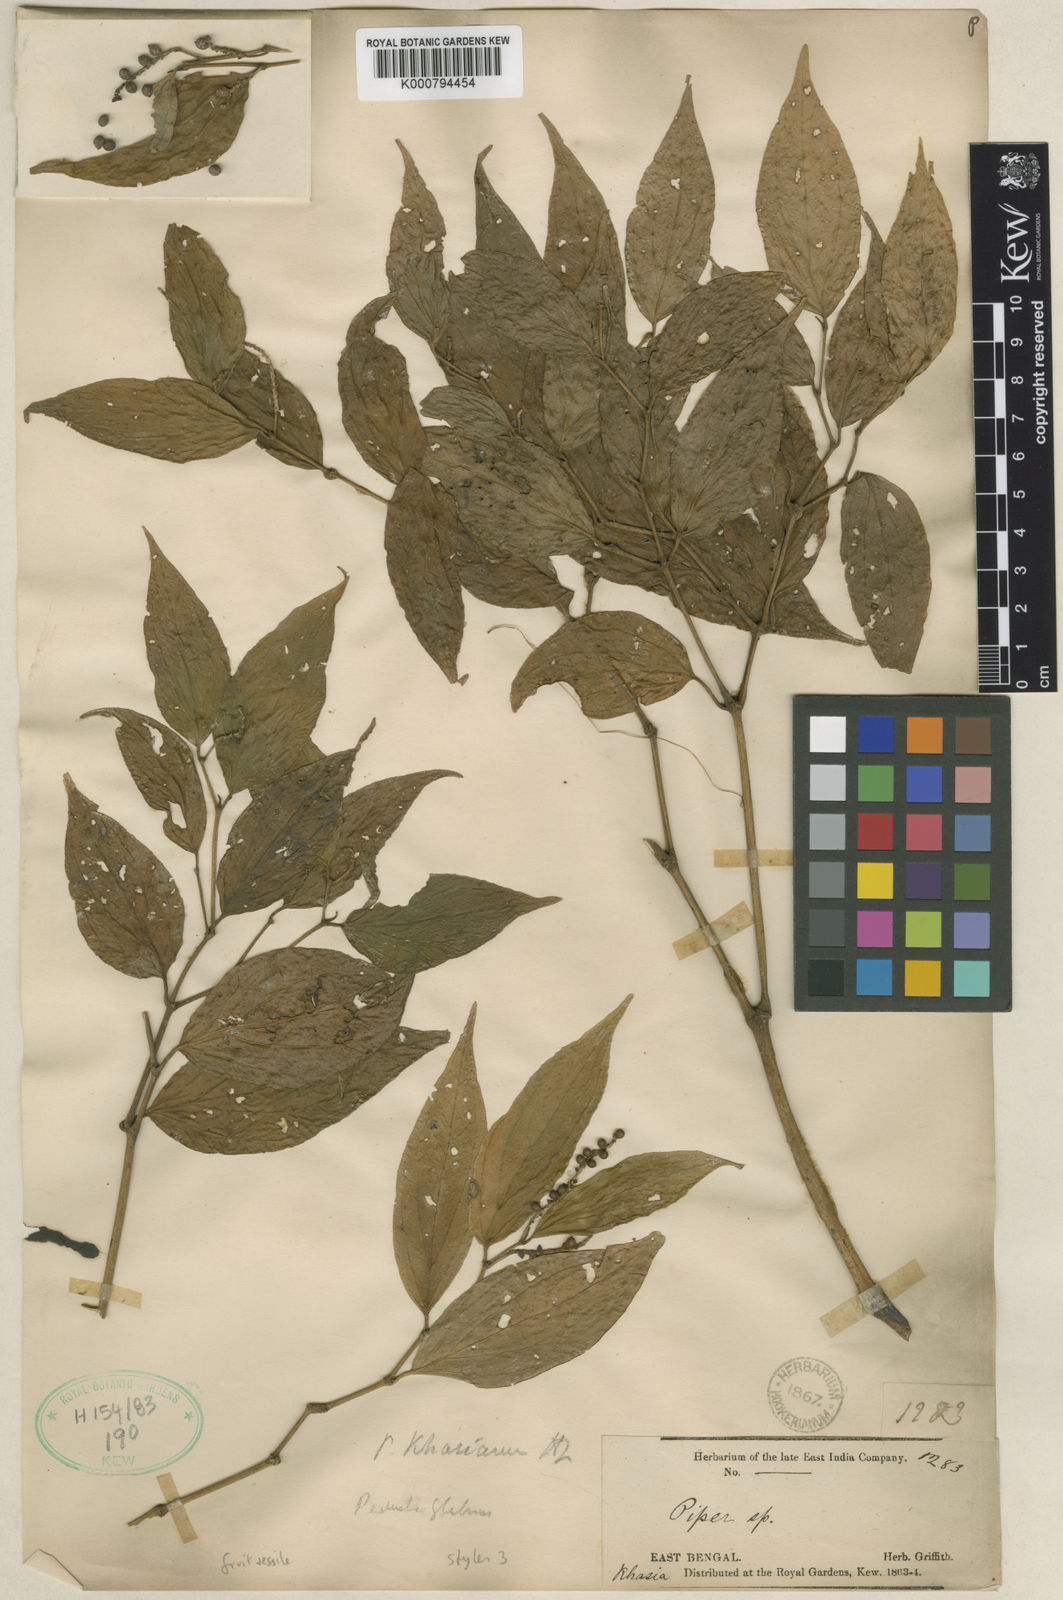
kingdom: Plantae
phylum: Tracheophyta
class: Magnoliopsida
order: Piperales
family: Piperaceae
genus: Piper
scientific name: Piper khasianum
